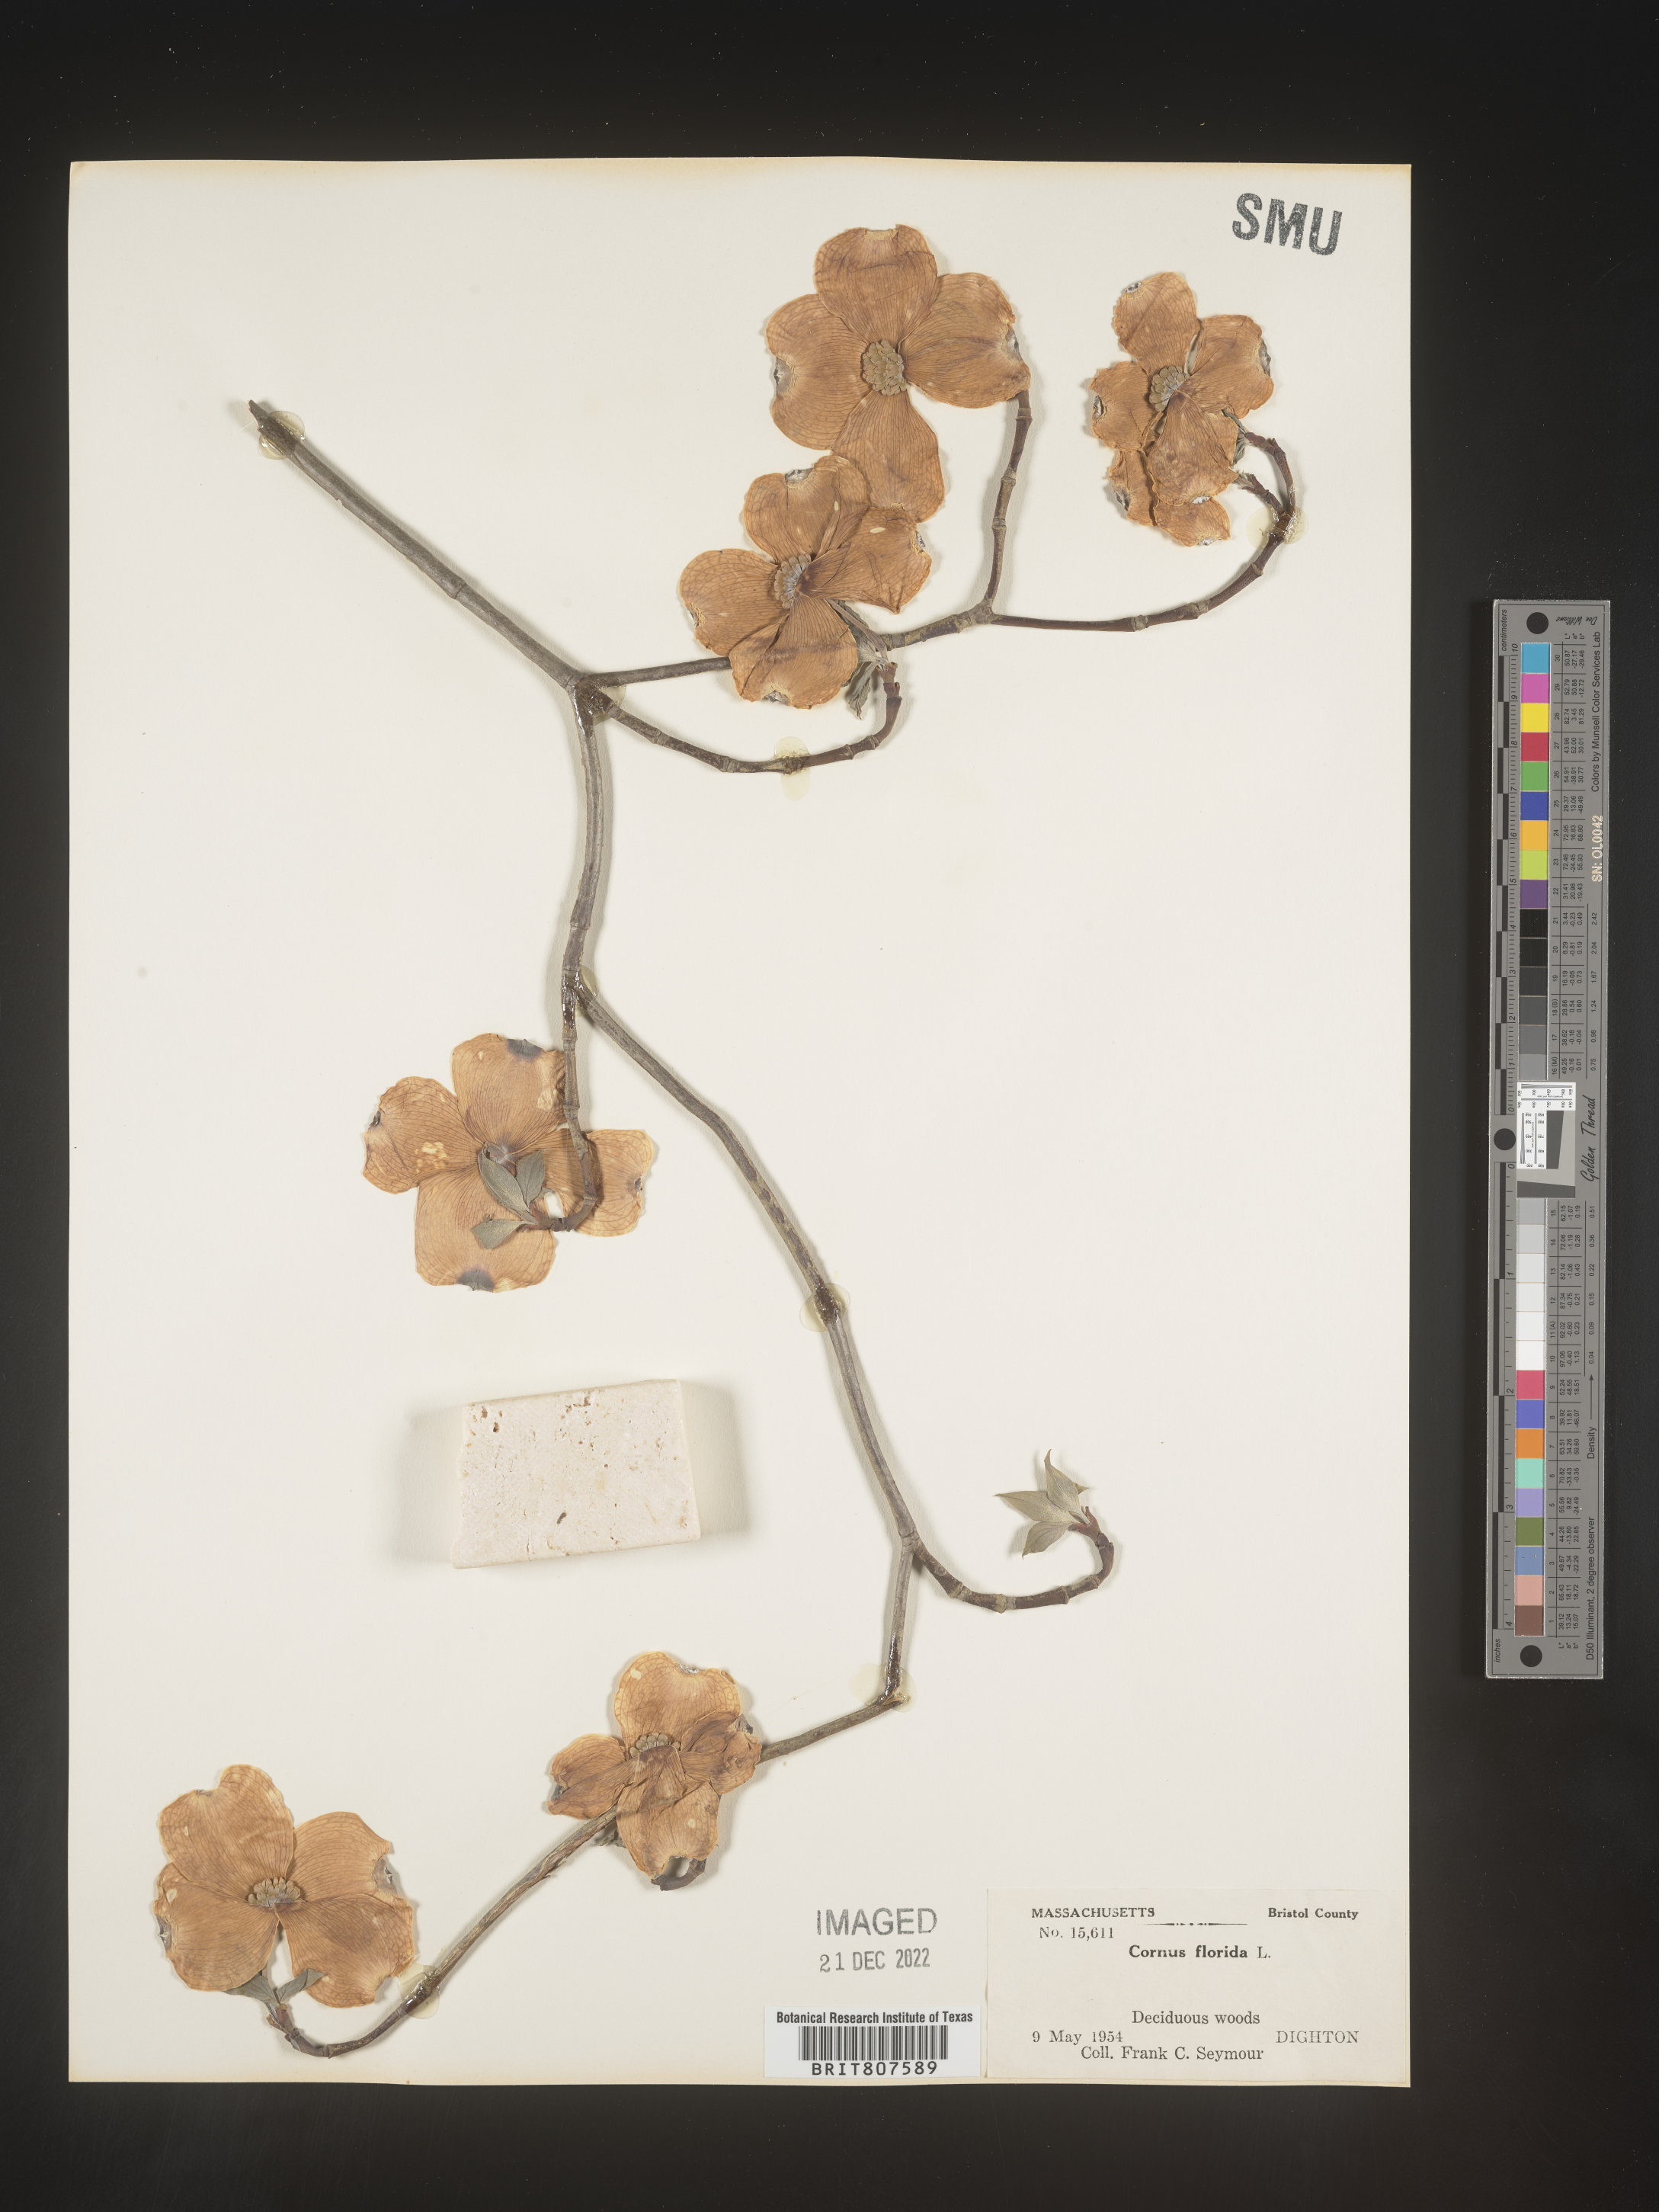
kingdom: Plantae
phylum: Tracheophyta
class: Magnoliopsida
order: Cornales
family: Cornaceae
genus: Cornus
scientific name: Cornus florida
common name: Flowering dogwood
